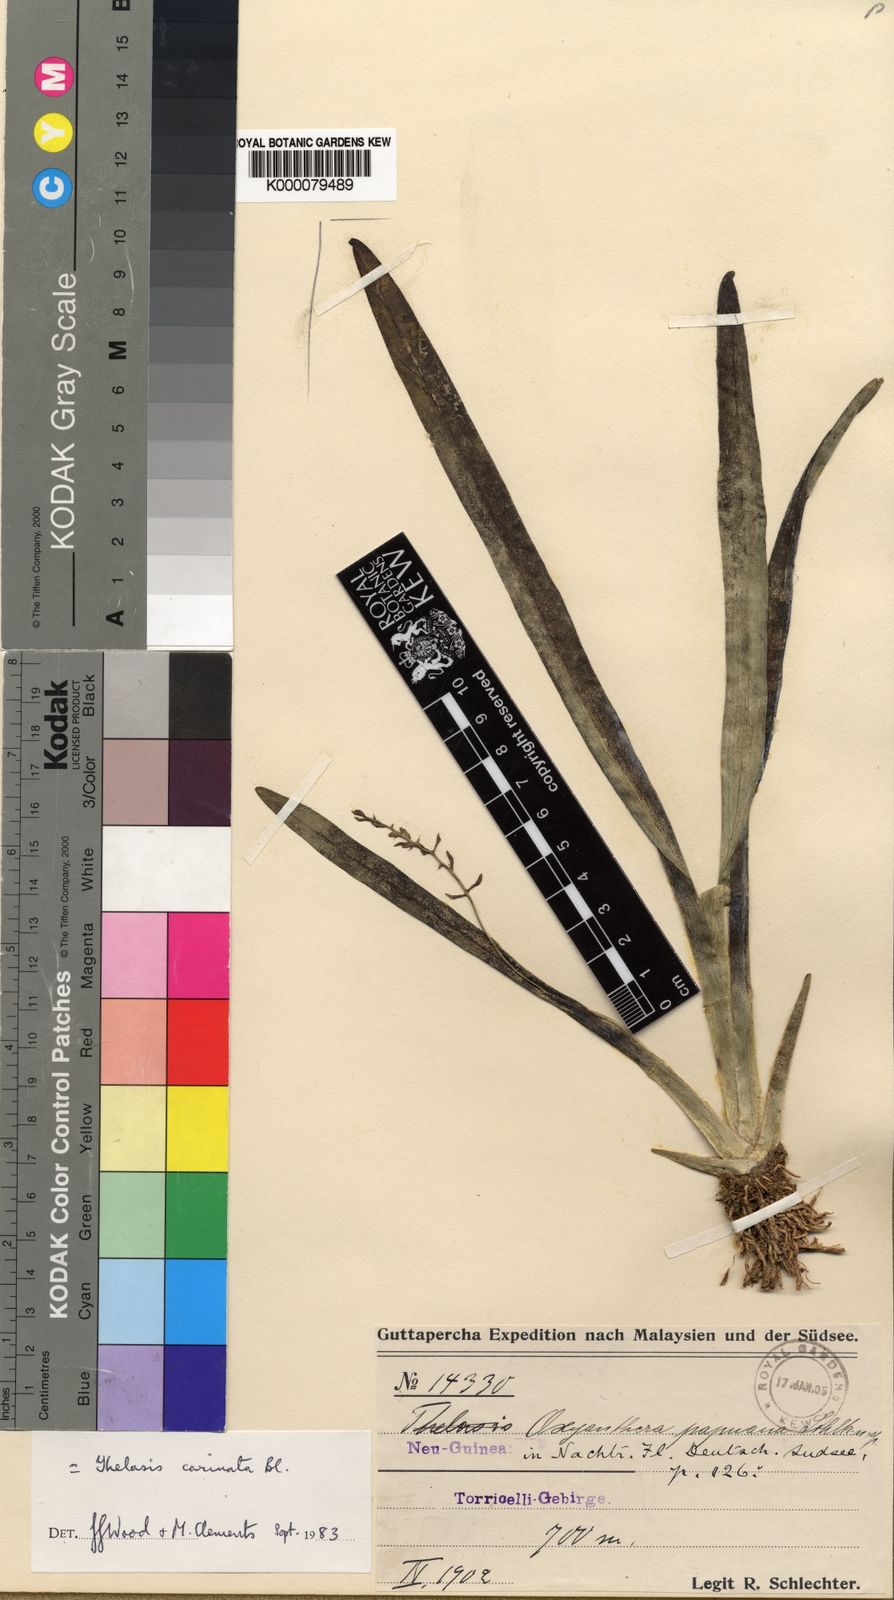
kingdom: Plantae
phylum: Tracheophyta
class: Liliopsida
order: Asparagales
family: Orchidaceae
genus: Thelasis
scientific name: Thelasis carinata
